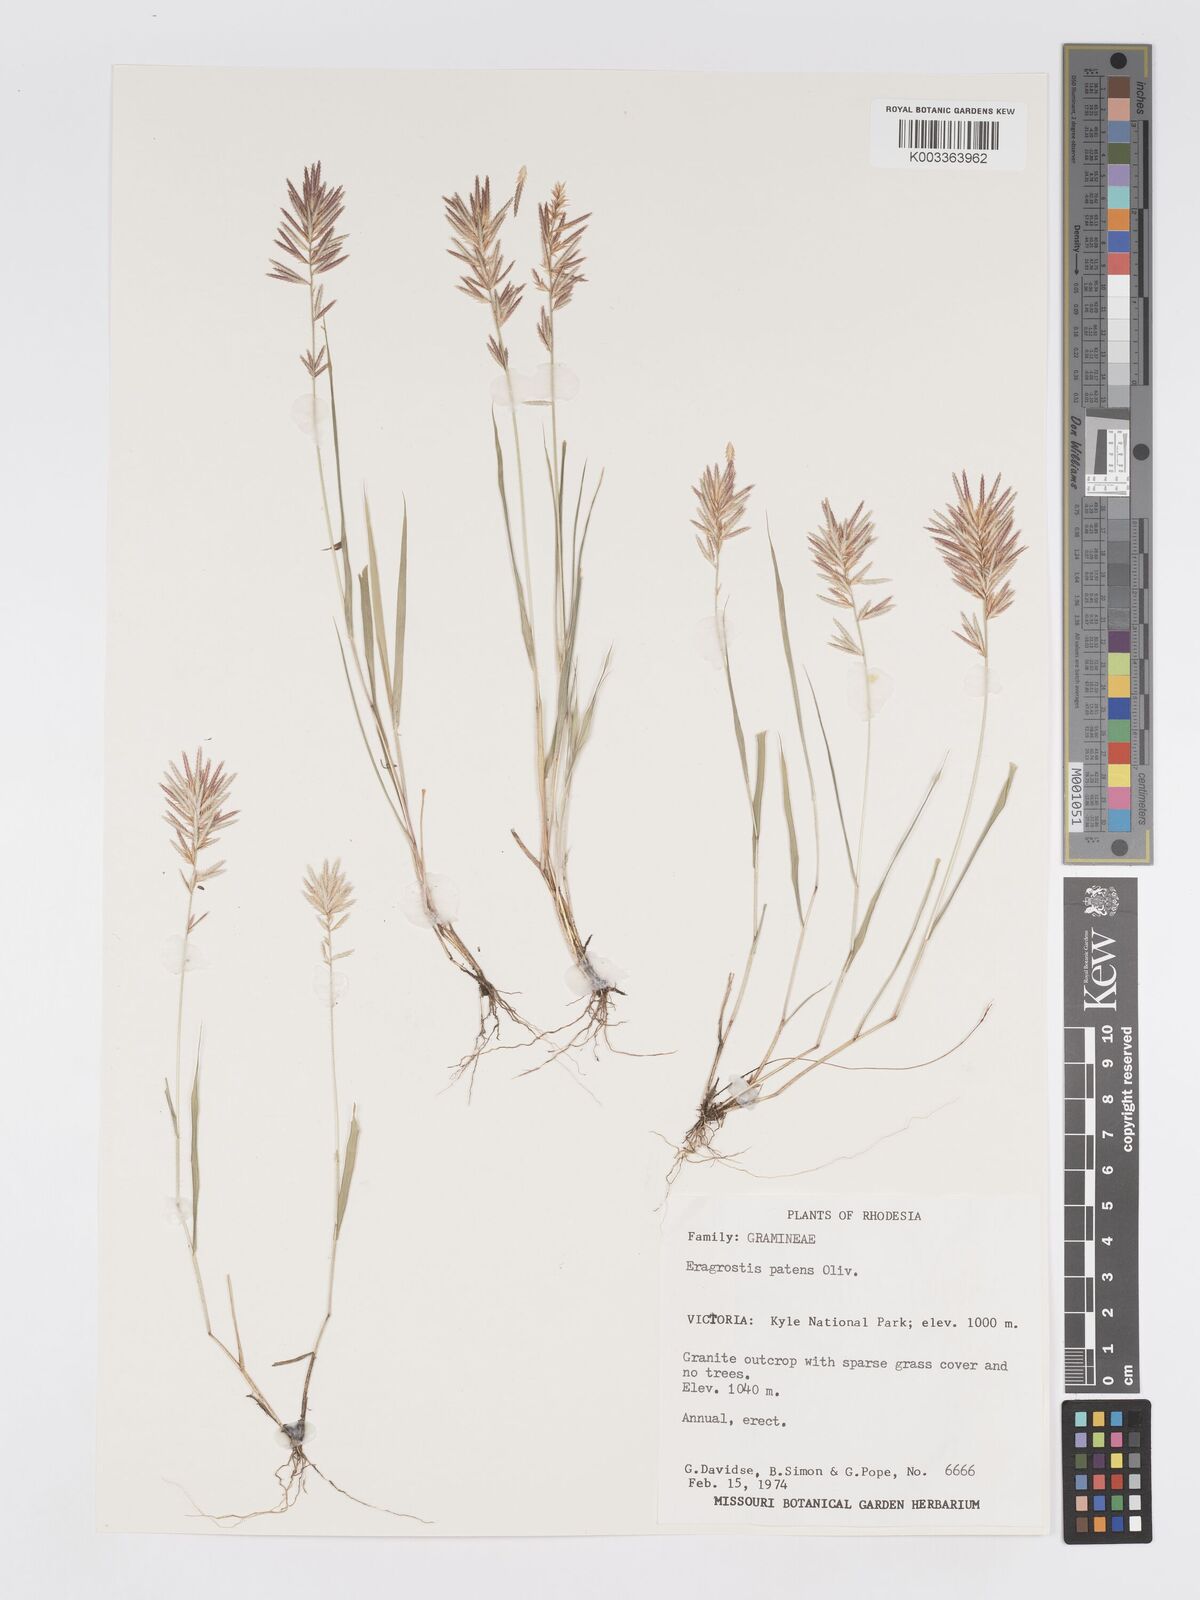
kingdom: Plantae
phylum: Tracheophyta
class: Liliopsida
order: Poales
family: Poaceae
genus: Eragrostis
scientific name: Eragrostis patens
